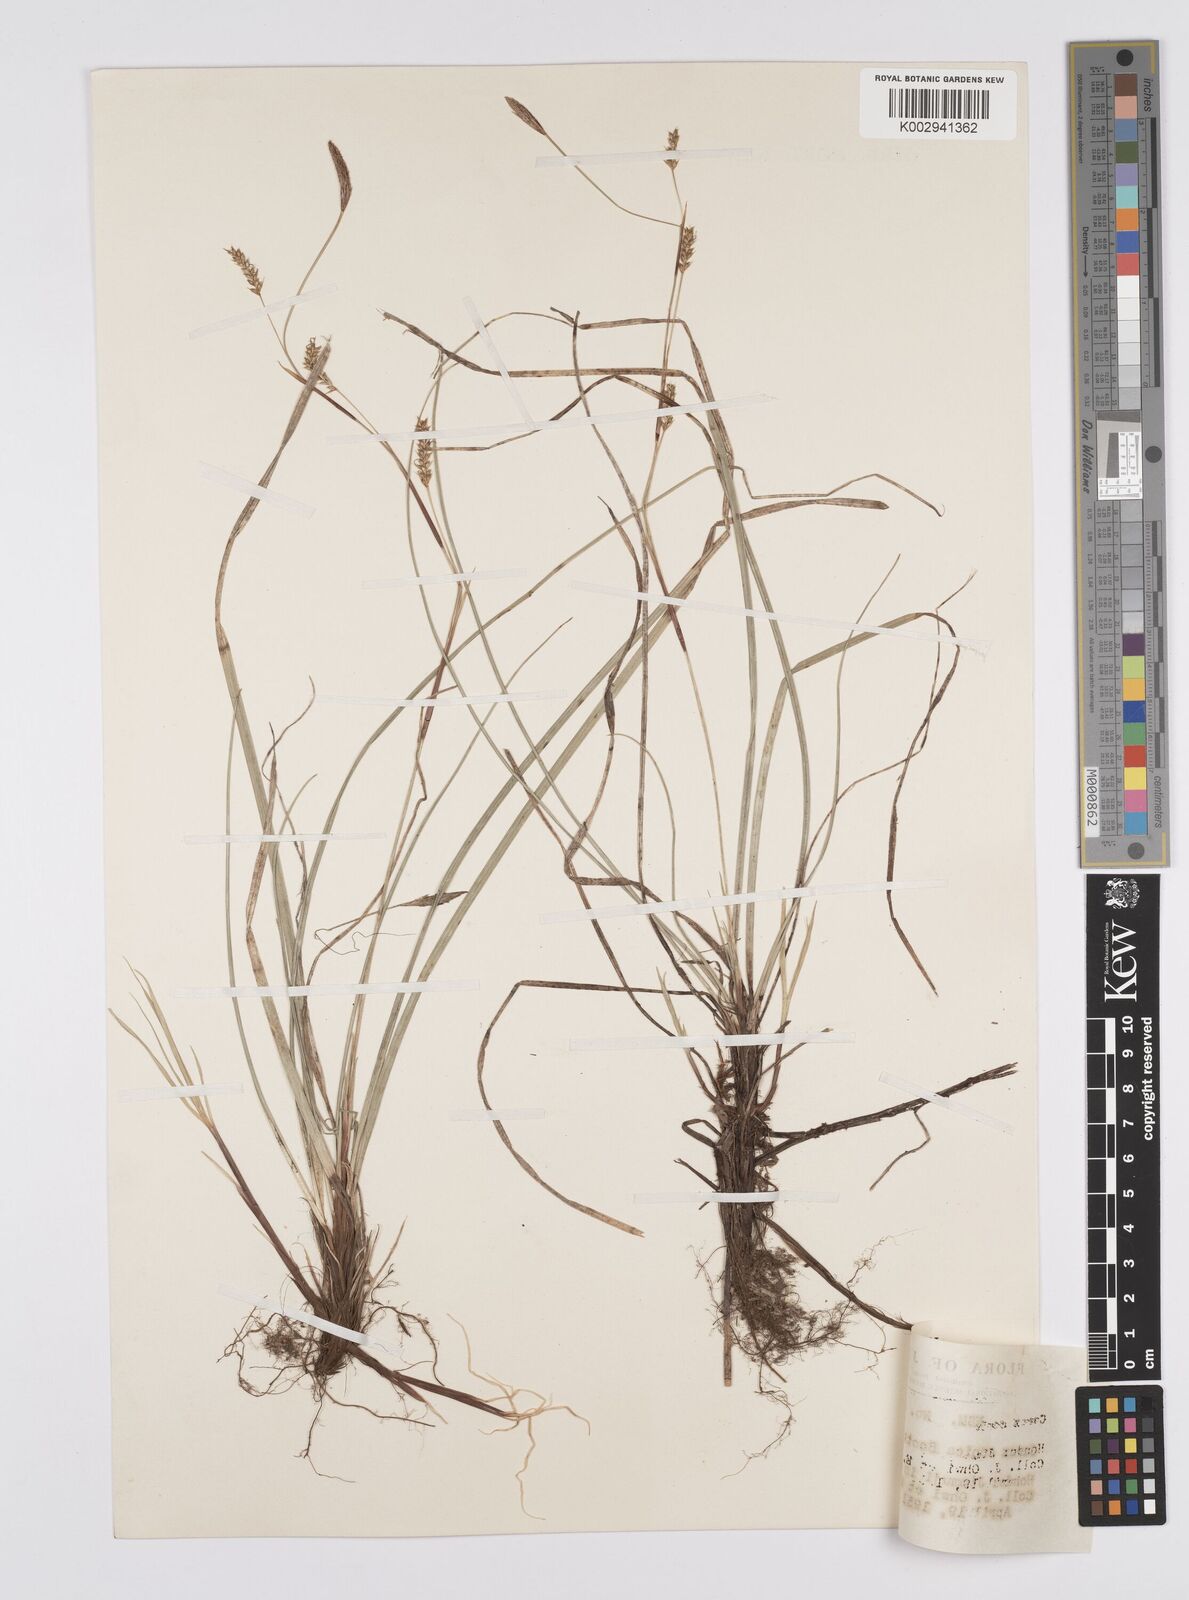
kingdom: Plantae
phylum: Tracheophyta
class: Liliopsida
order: Poales
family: Cyperaceae
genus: Carex
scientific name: Carex conica
